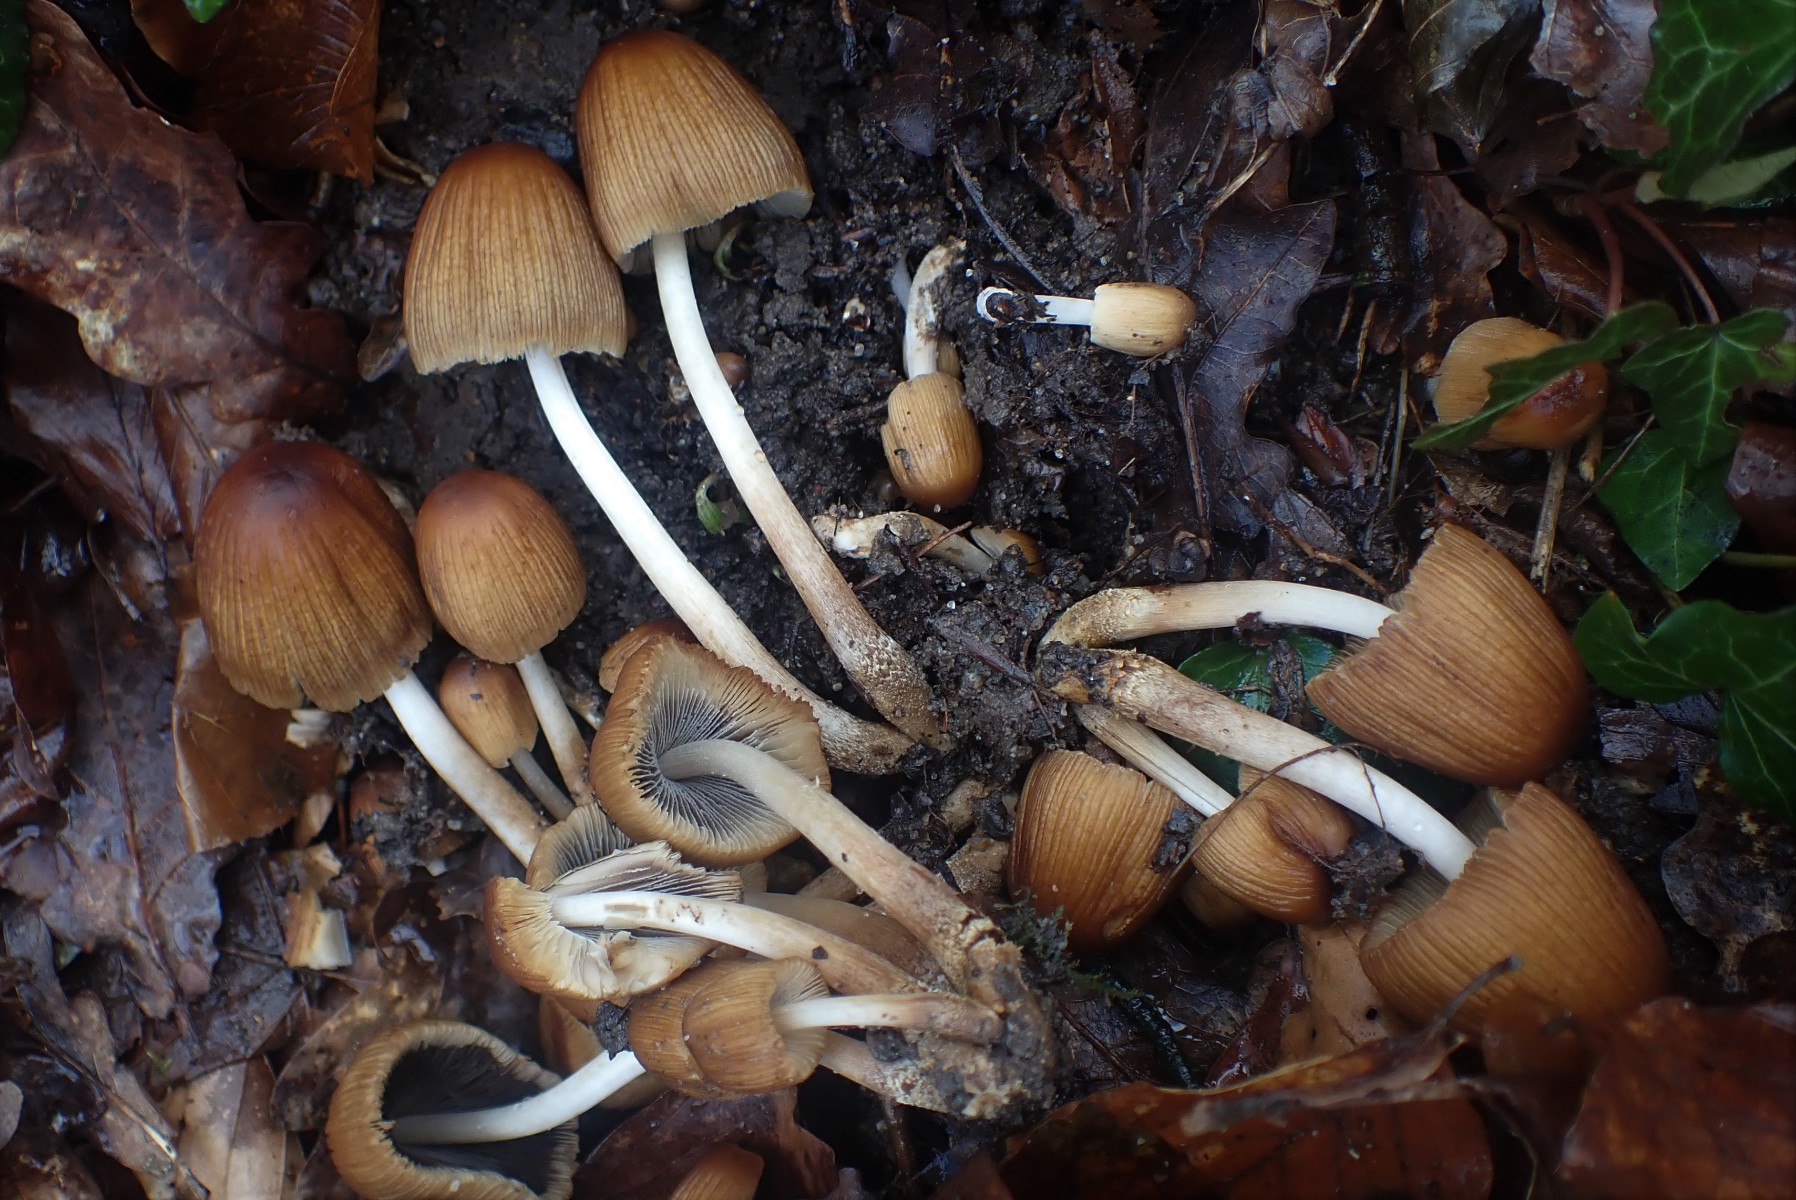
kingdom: Fungi
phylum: Basidiomycota
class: Agaricomycetes
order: Agaricales
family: Psathyrellaceae
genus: Coprinellus
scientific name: Coprinellus
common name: blækhat
